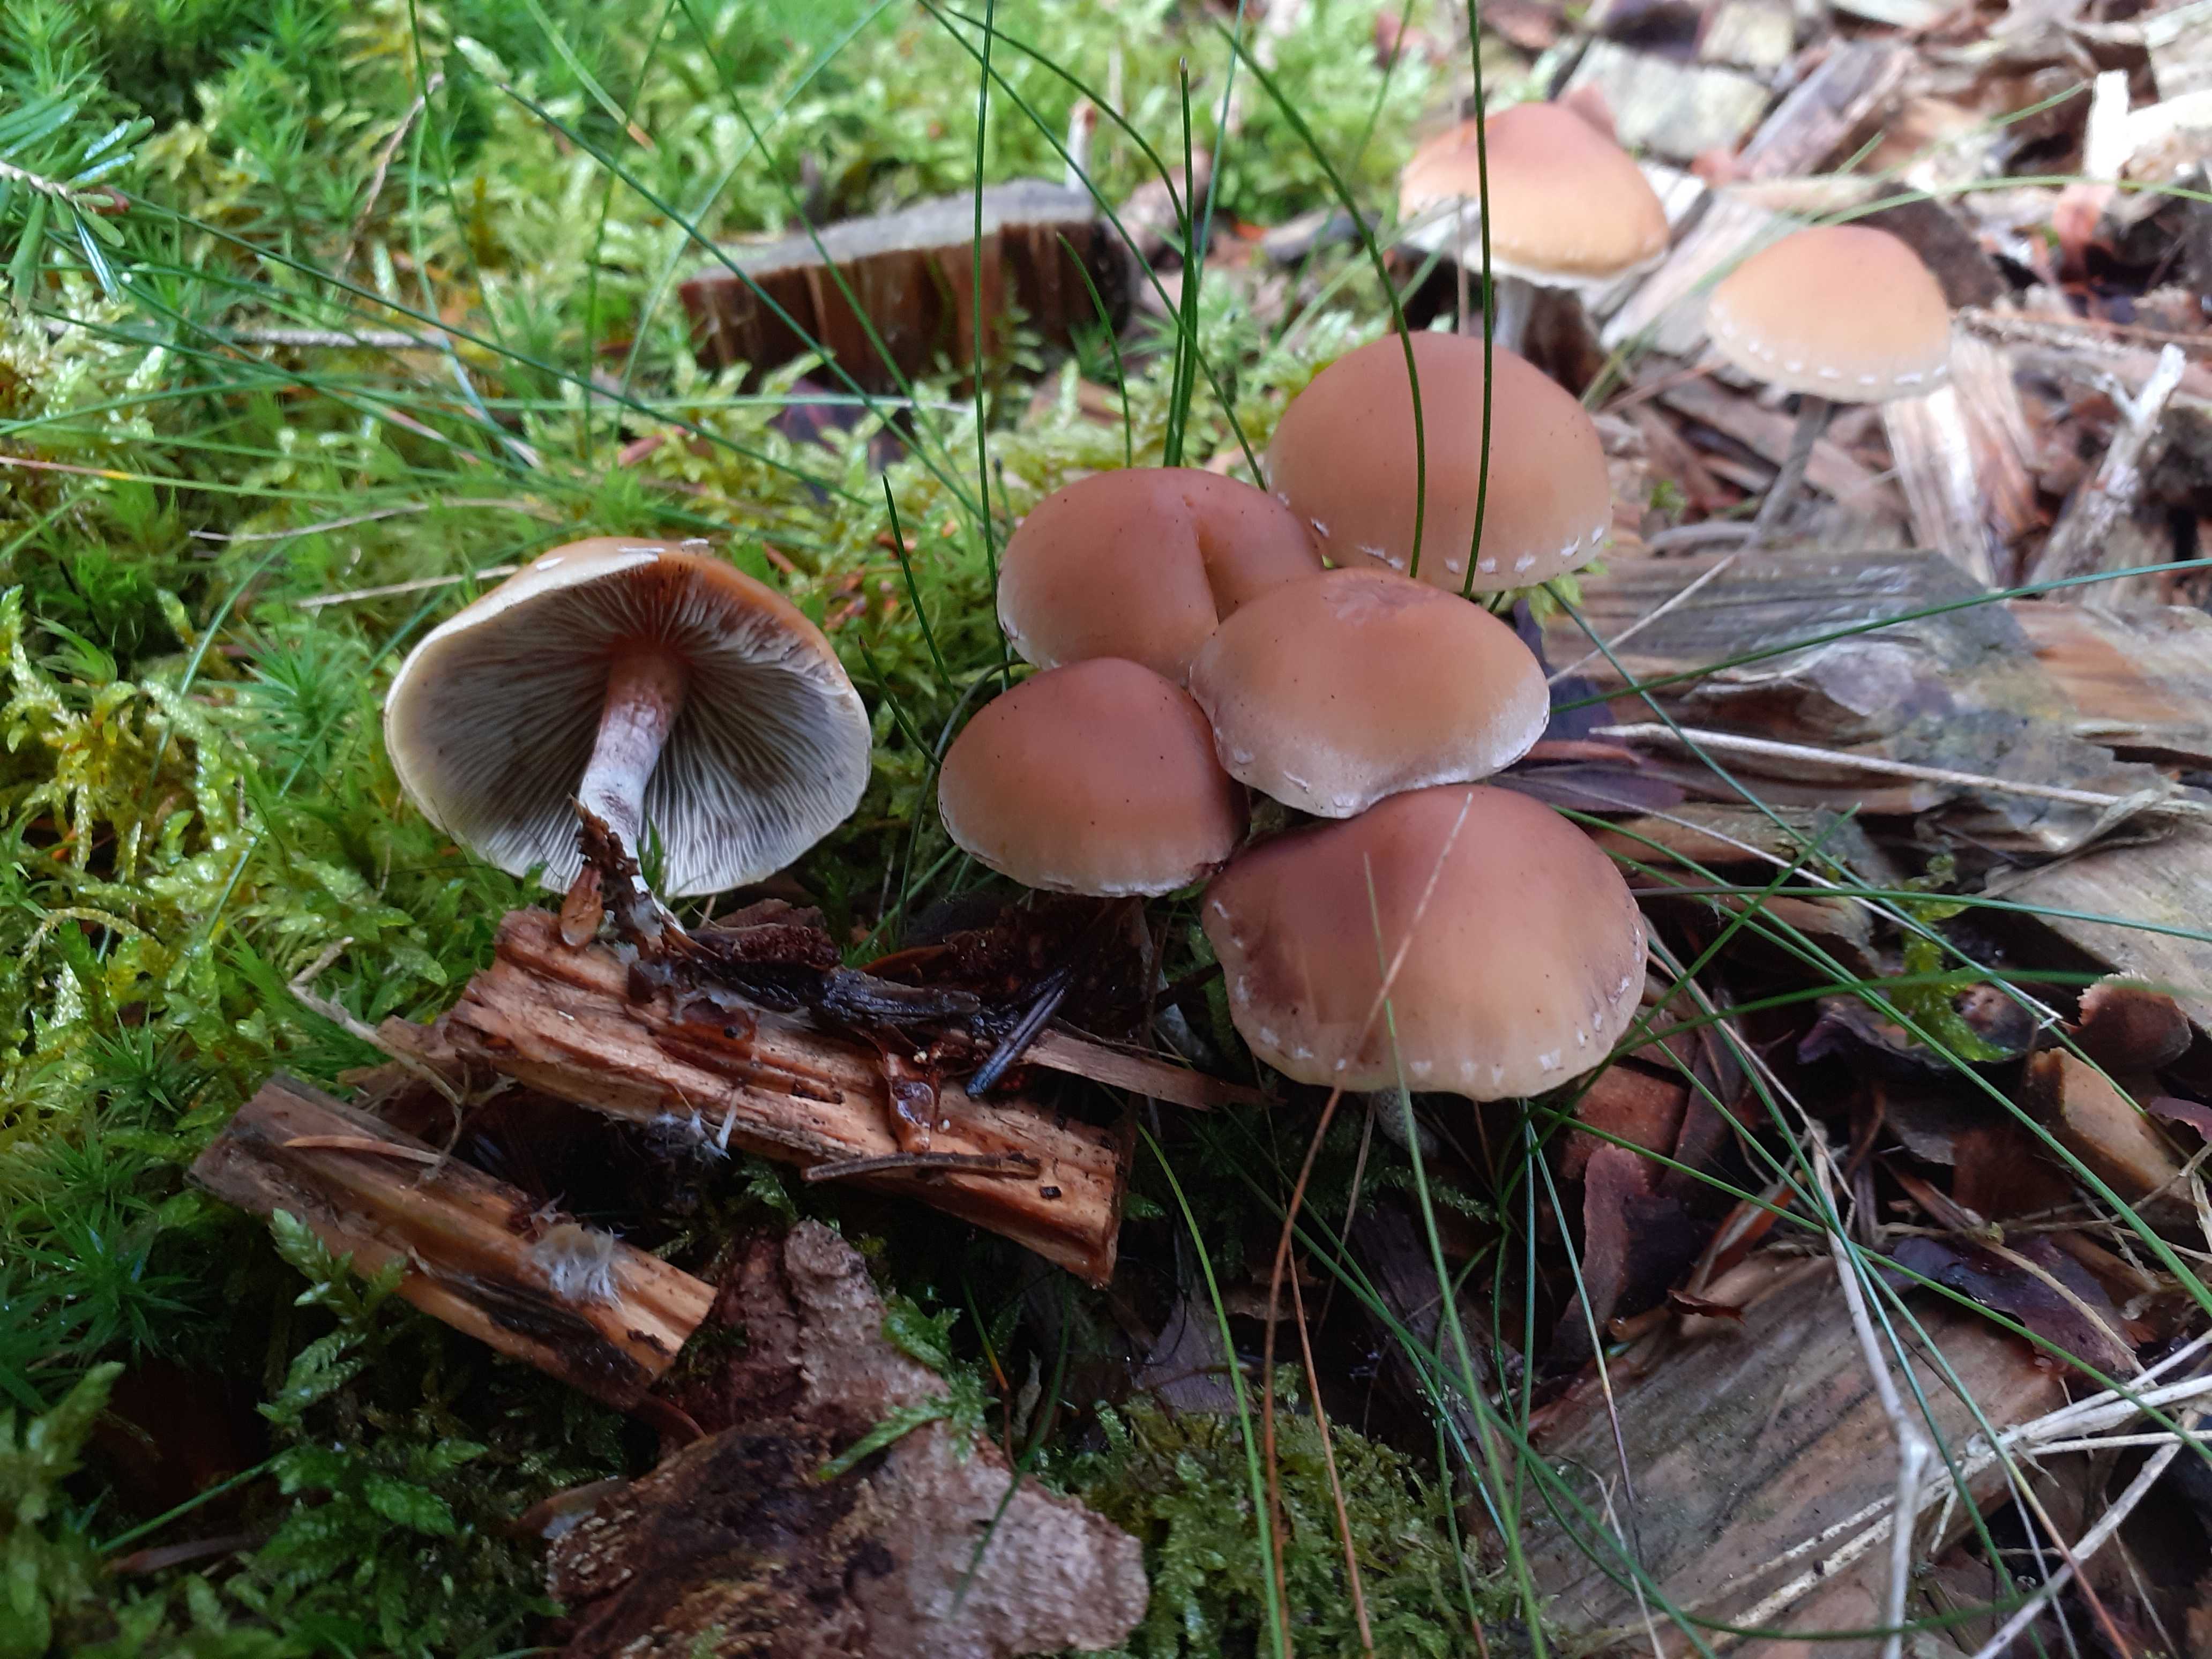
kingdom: Fungi
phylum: Basidiomycota
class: Agaricomycetes
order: Agaricales
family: Strophariaceae
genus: Hypholoma
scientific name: Hypholoma marginatum
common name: enlig svovlhat
